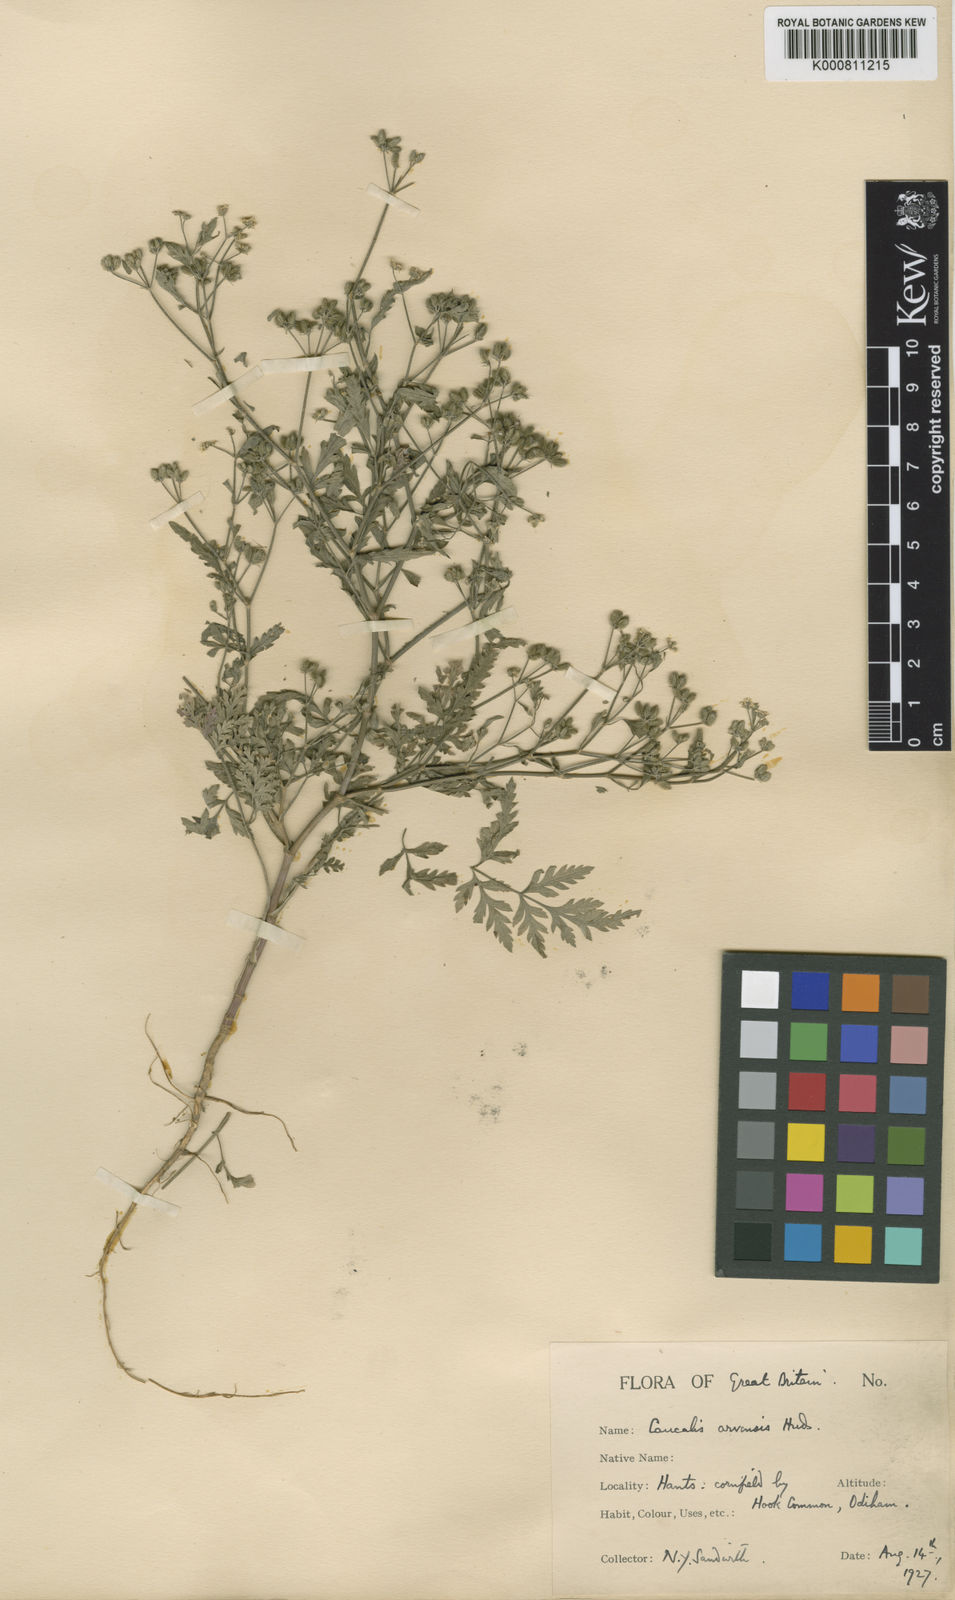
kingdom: Plantae
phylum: Tracheophyta
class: Magnoliopsida
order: Apiales
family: Apiaceae
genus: Torilis
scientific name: Torilis arvensis
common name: Spreading hedge-parsley
